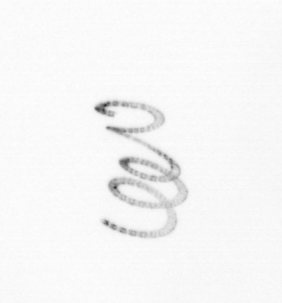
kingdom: Chromista
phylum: Ochrophyta
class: Bacillariophyceae
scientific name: Bacillariophyceae
